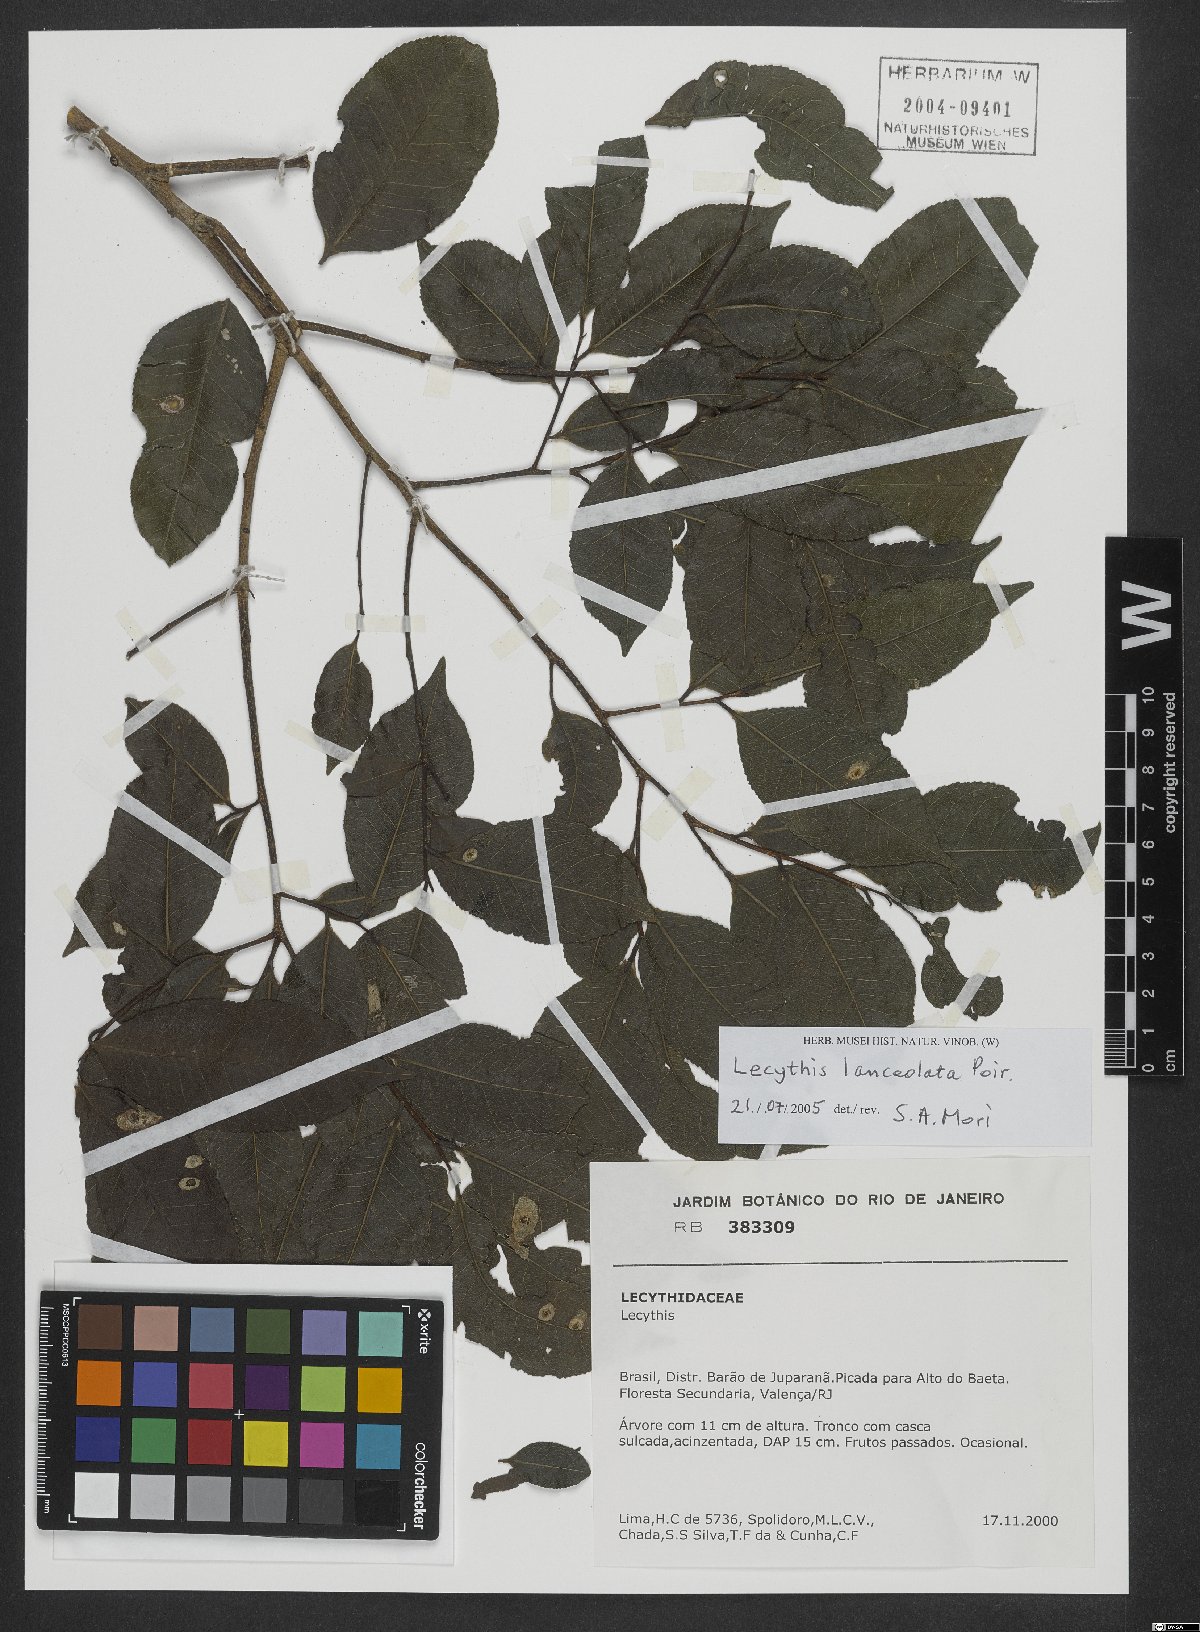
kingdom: Plantae
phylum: Tracheophyta
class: Magnoliopsida
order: Ericales
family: Lecythidaceae
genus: Lecythis
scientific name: Lecythis lanceolata
